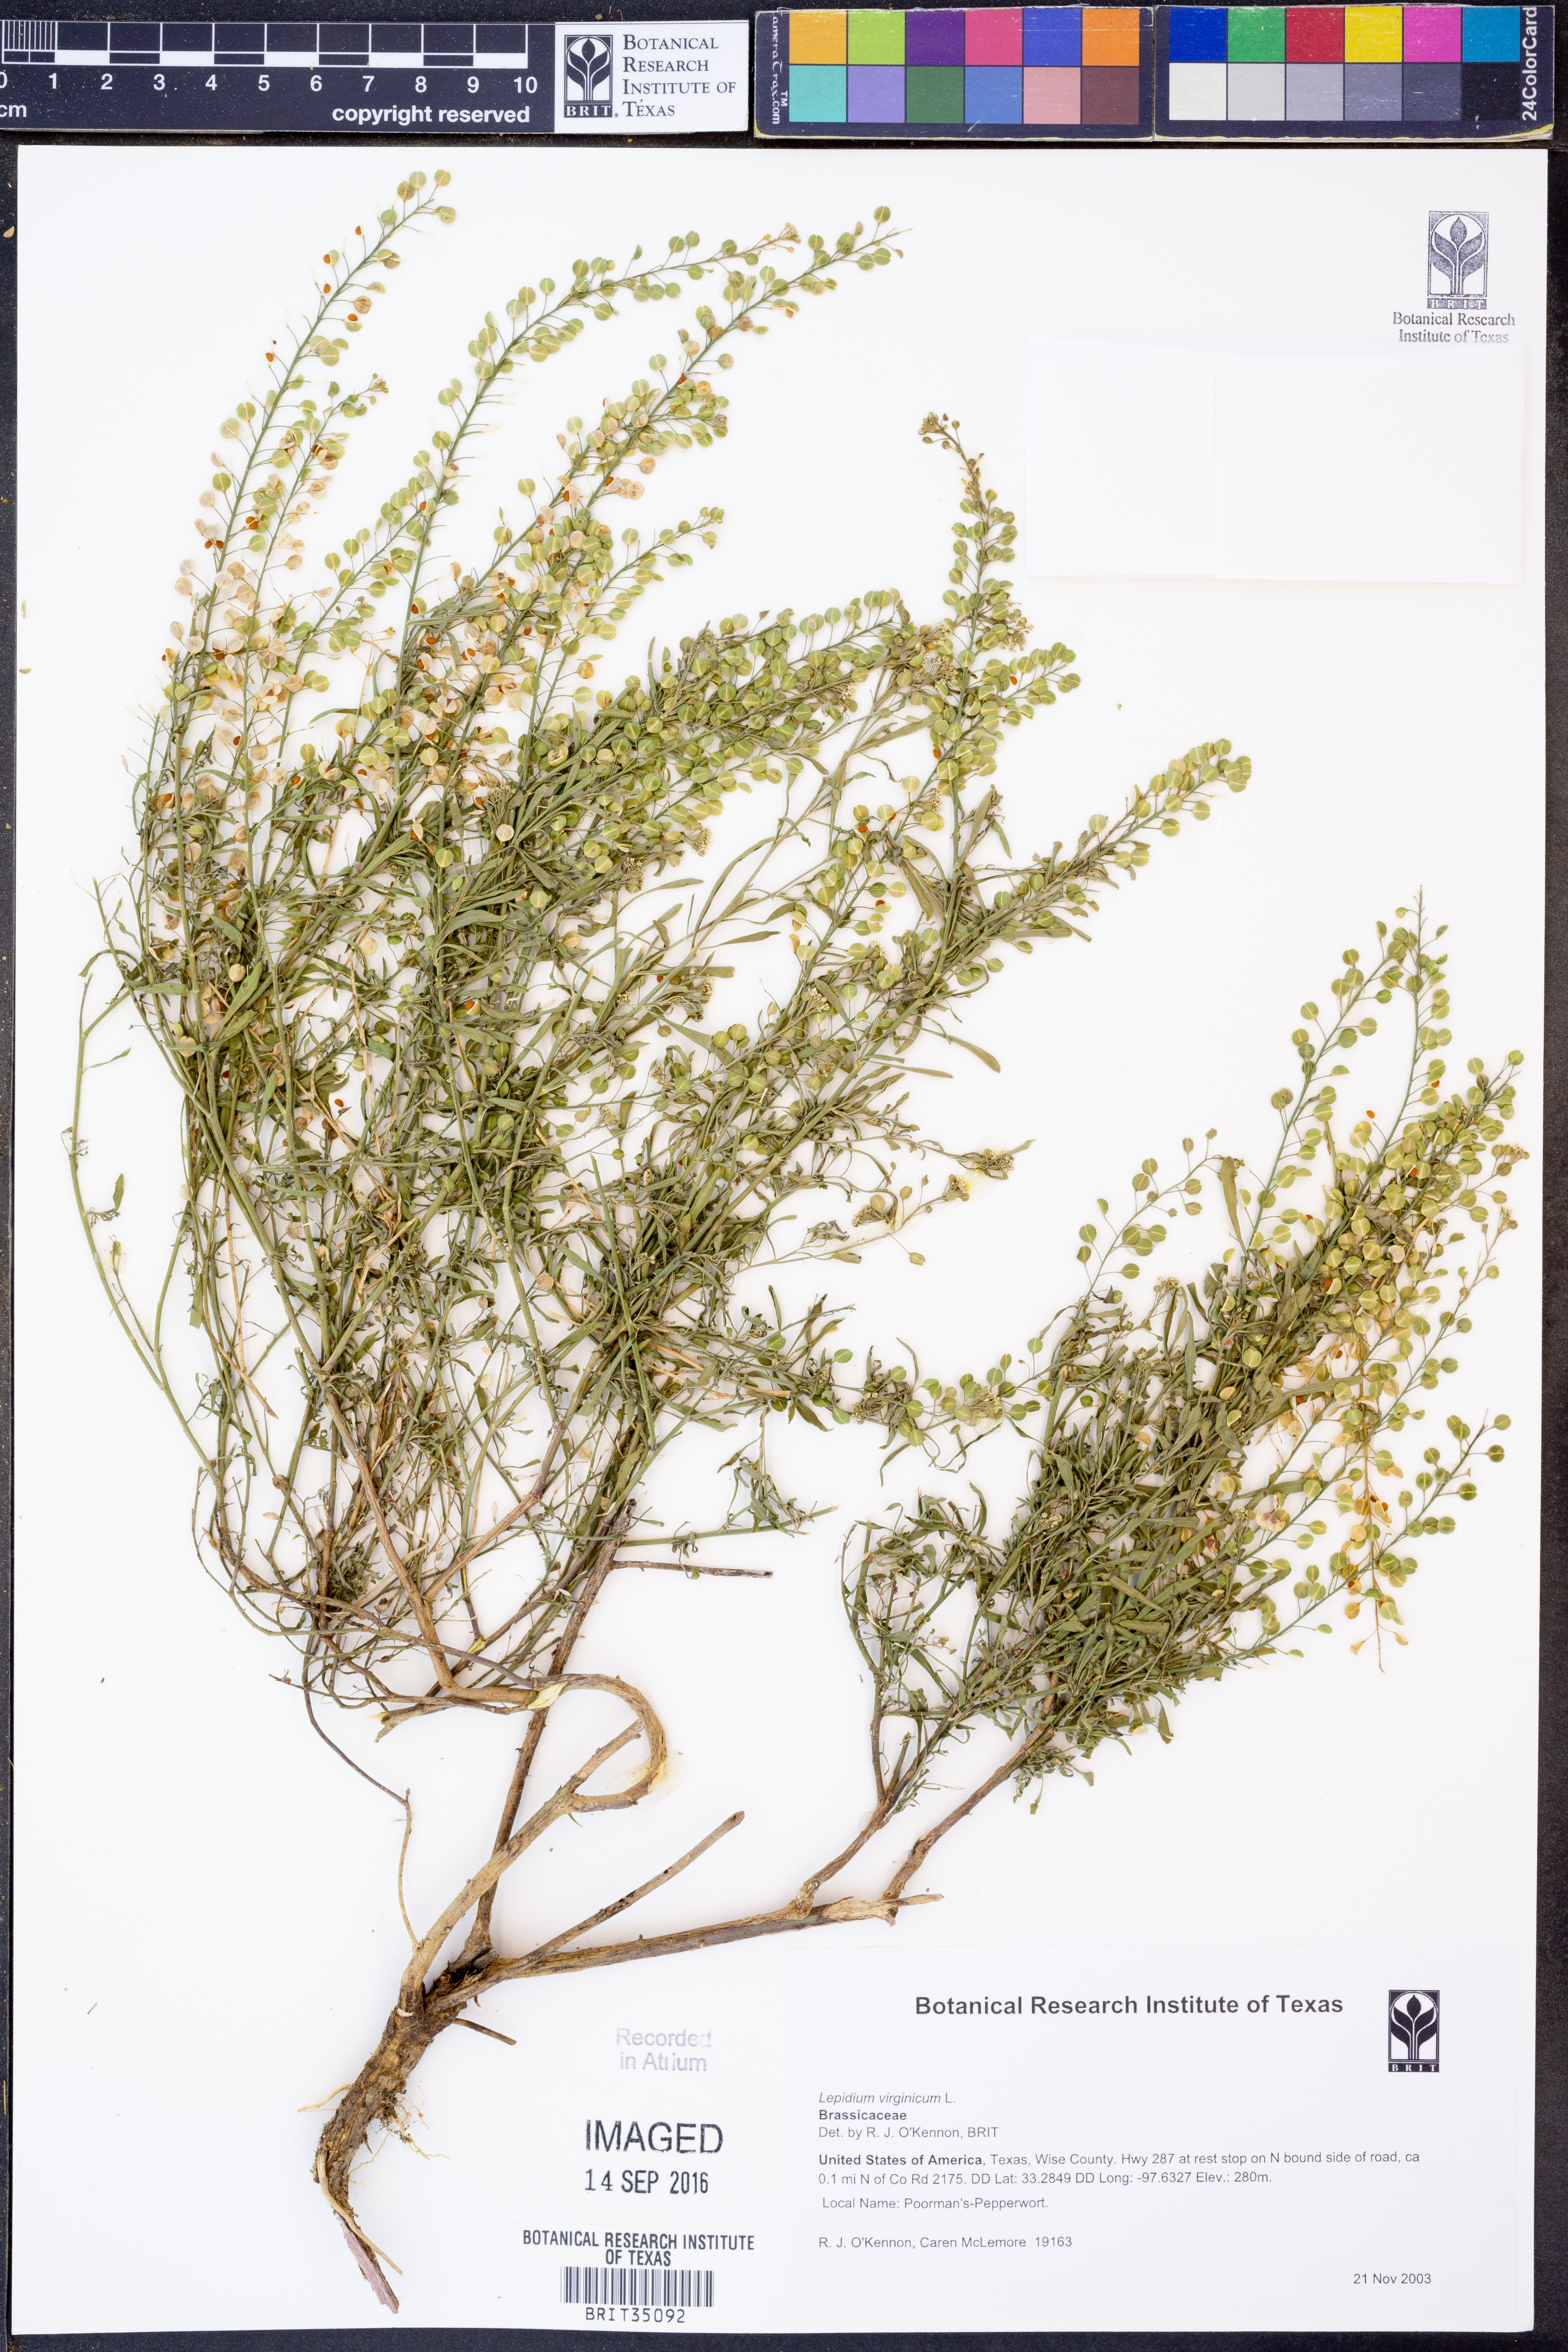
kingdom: Plantae
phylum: Tracheophyta
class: Magnoliopsida
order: Brassicales
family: Brassicaceae
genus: Lepidium
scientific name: Lepidium virginicum
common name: Least pepperwort
